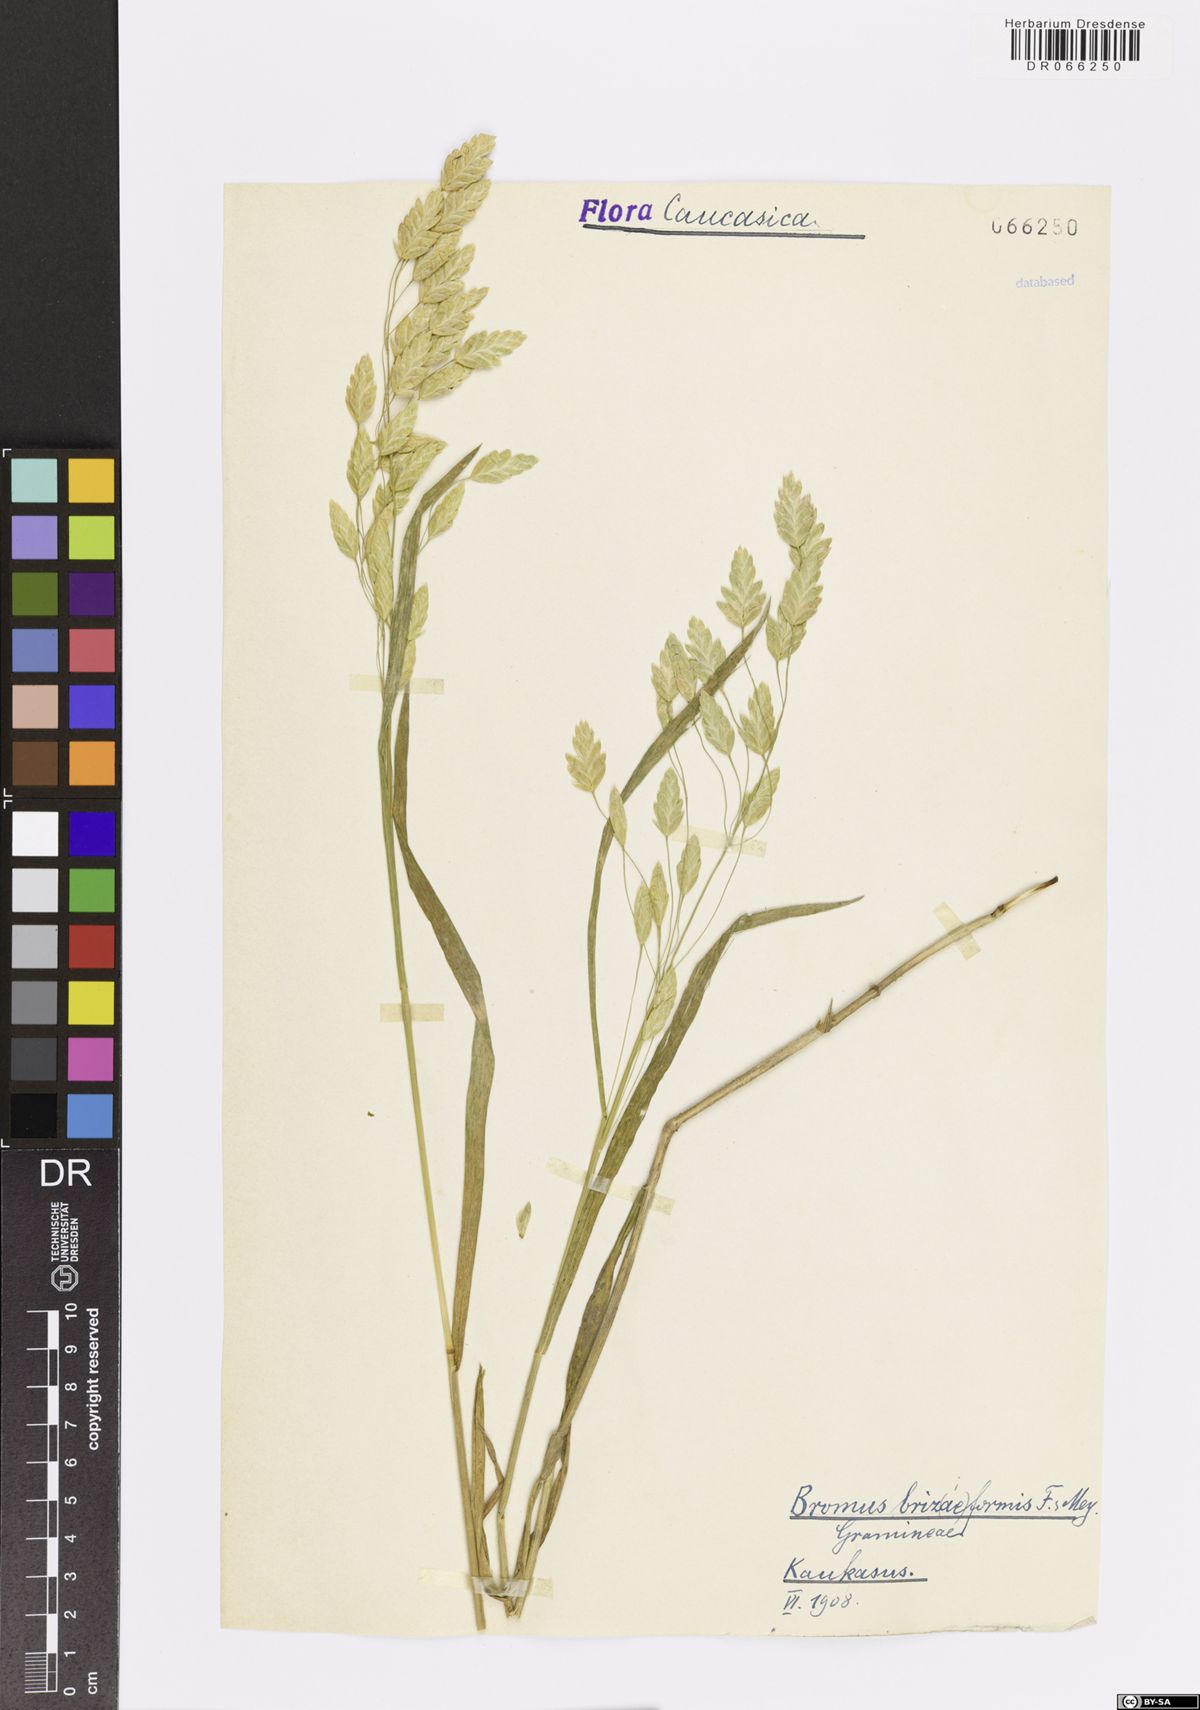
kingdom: Plantae
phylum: Tracheophyta
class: Liliopsida
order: Poales
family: Poaceae
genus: Bromus
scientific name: Bromus briziformis
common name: Rattlesnake brome
